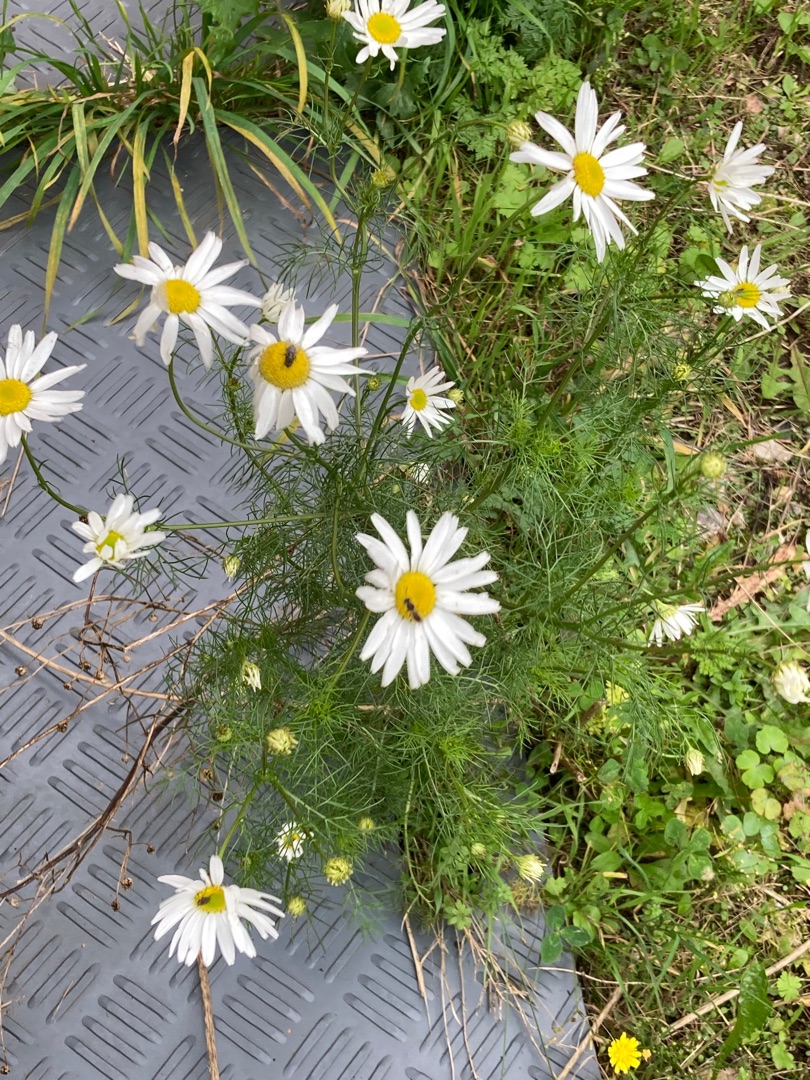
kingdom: Plantae
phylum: Tracheophyta
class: Magnoliopsida
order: Asterales
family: Asteraceae
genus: Tripleurospermum
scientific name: Tripleurospermum inodorum
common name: Lugtløs kamille
